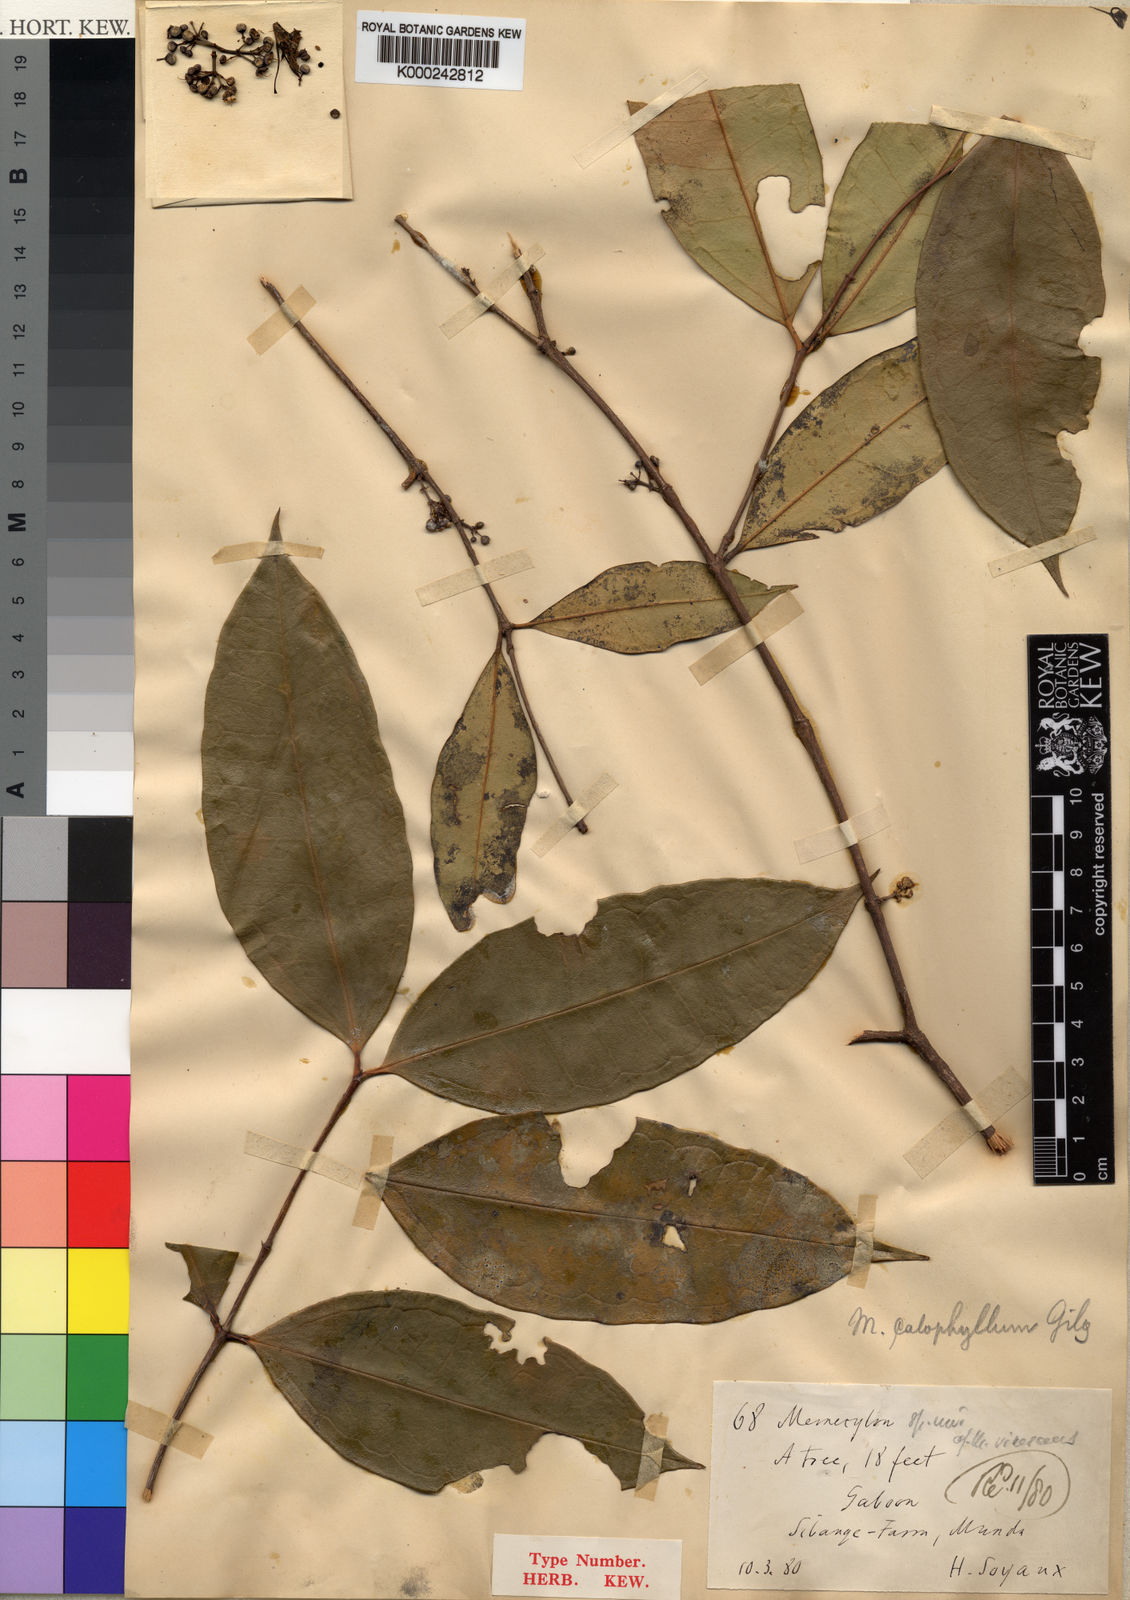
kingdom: Plantae
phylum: Tracheophyta
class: Magnoliopsida
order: Myrtales
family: Melastomataceae
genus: Memecylon
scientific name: Memecylon calophyllum
